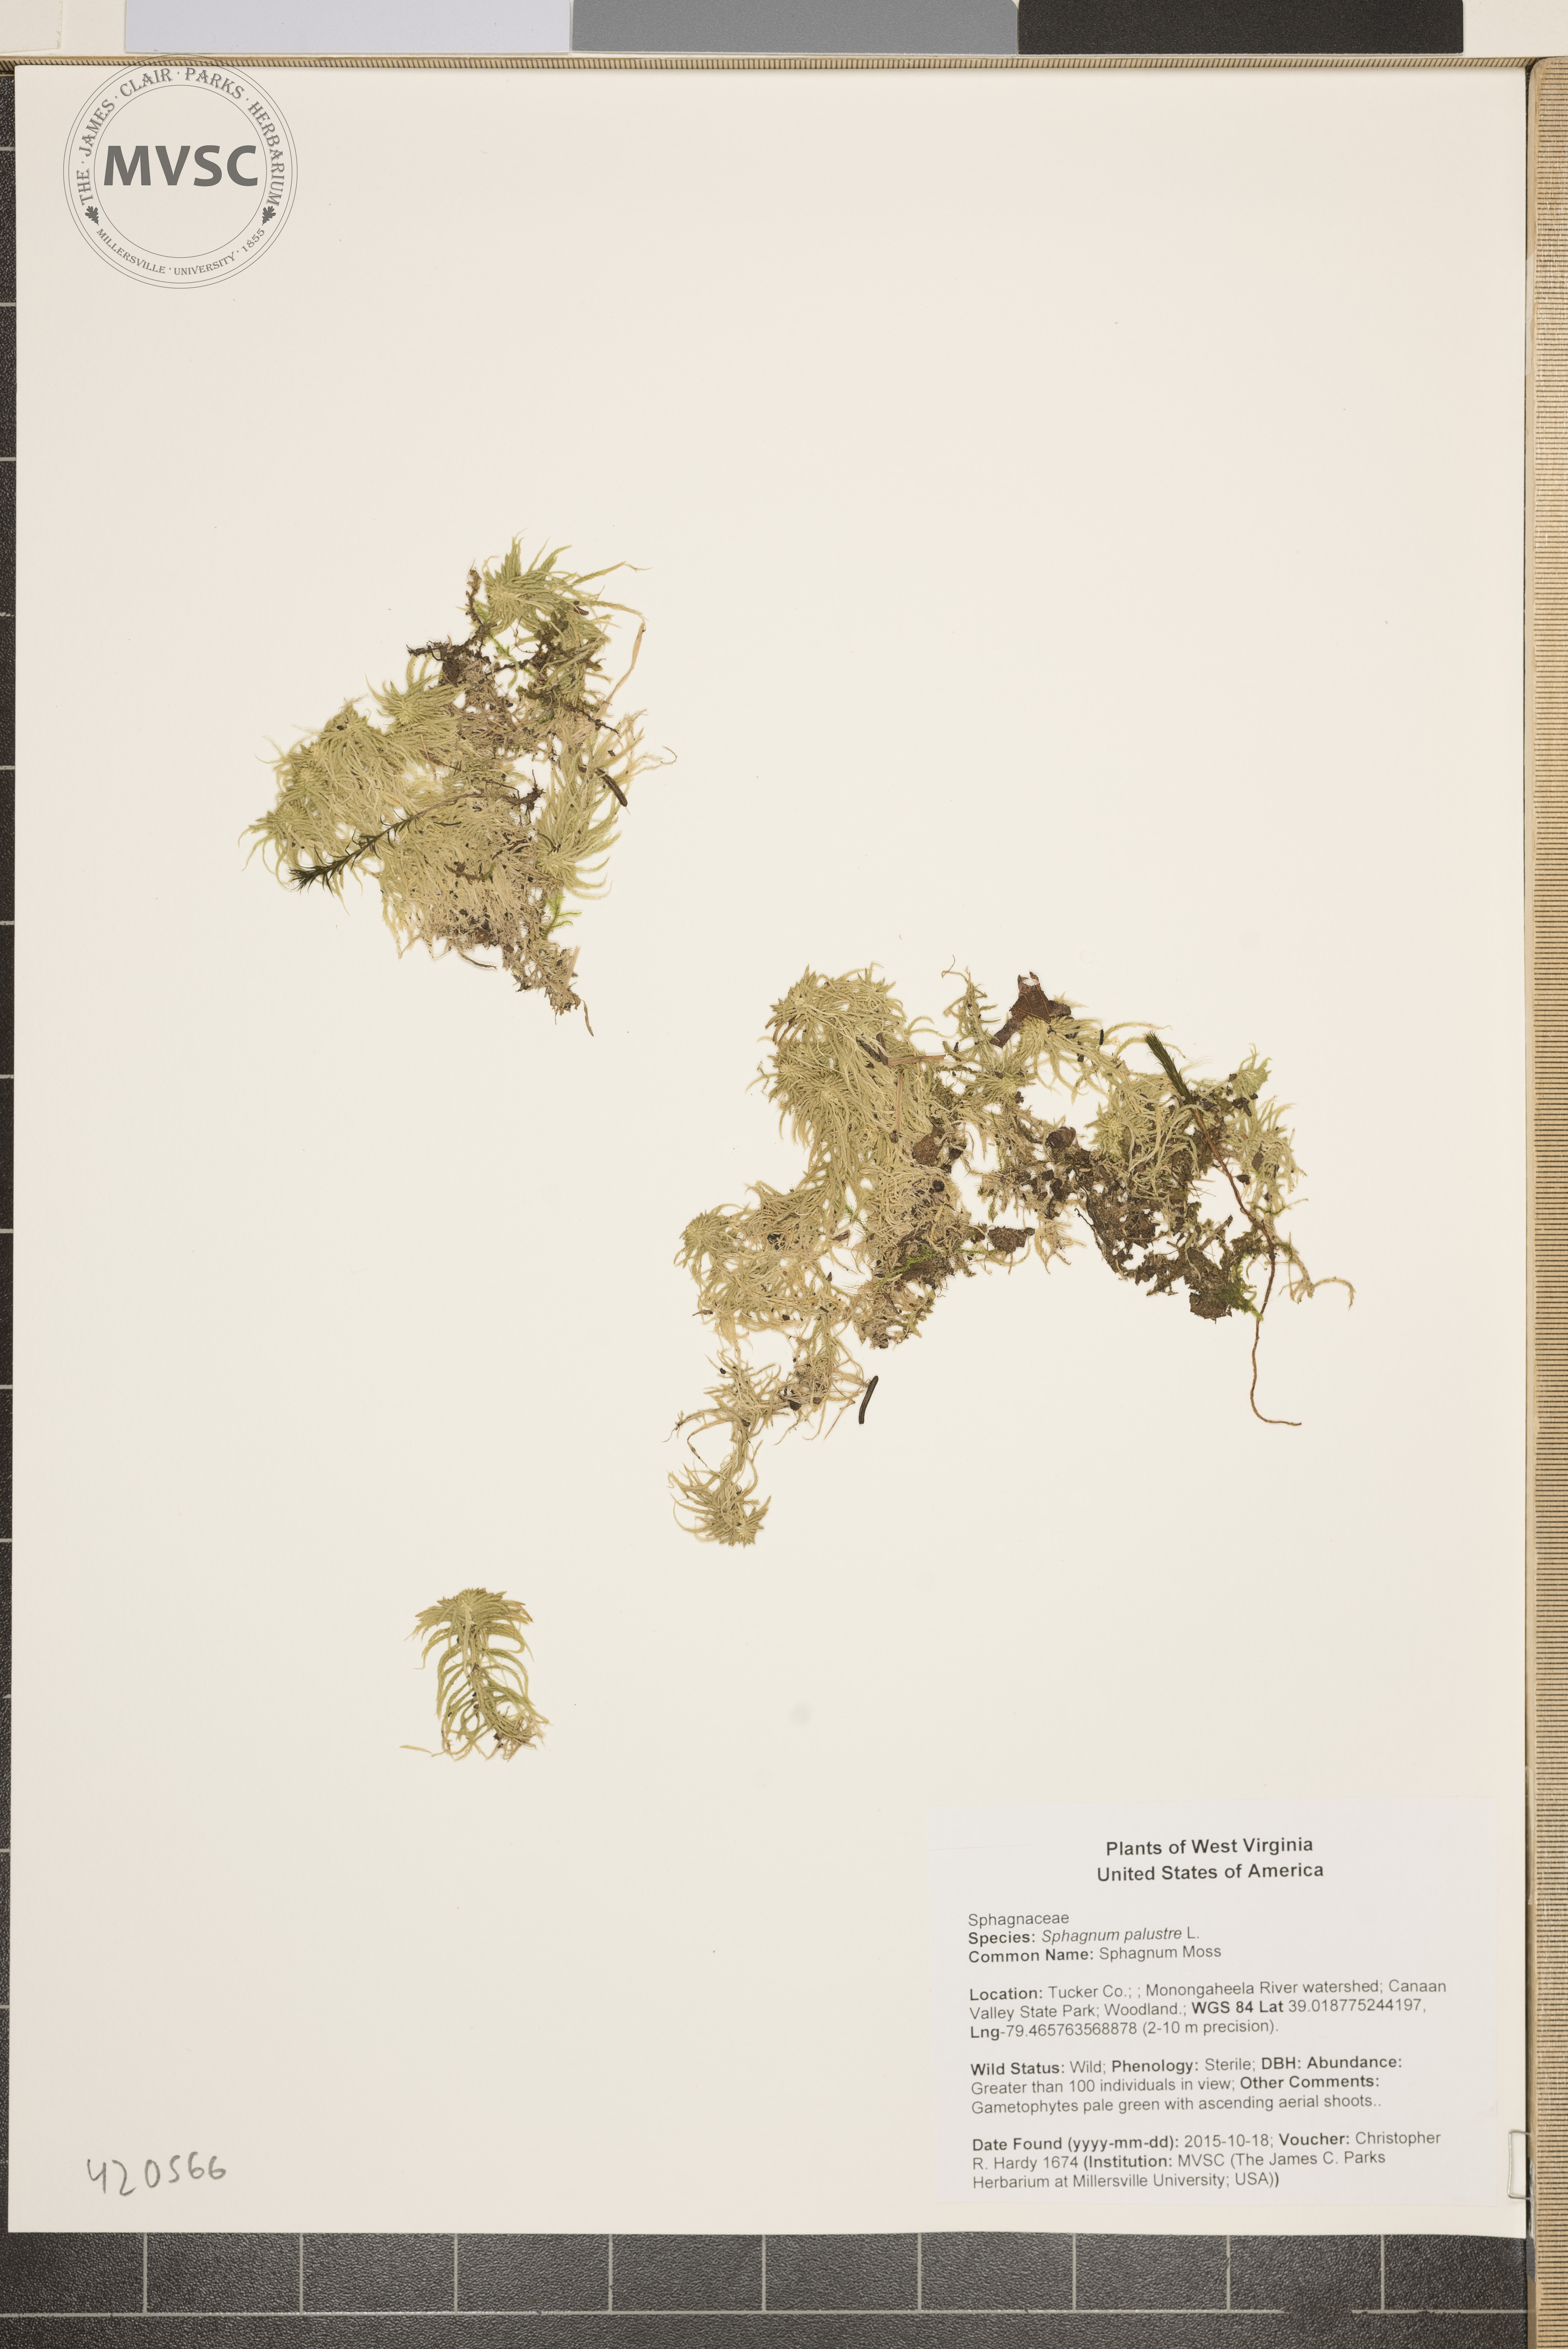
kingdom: Plantae
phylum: Bryophyta
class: Sphagnopsida
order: Sphagnales
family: Sphagnaceae
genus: Sphagnum
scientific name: Sphagnum palustre
